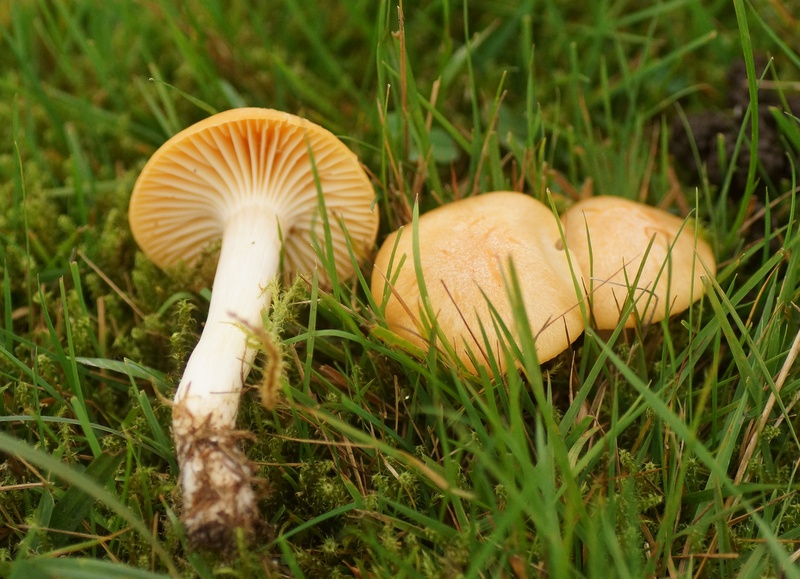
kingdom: Fungi
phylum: Basidiomycota
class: Agaricomycetes
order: Agaricales
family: Hygrophoraceae
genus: Cuphophyllus
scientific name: Cuphophyllus pratensis
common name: eng-vokshat
